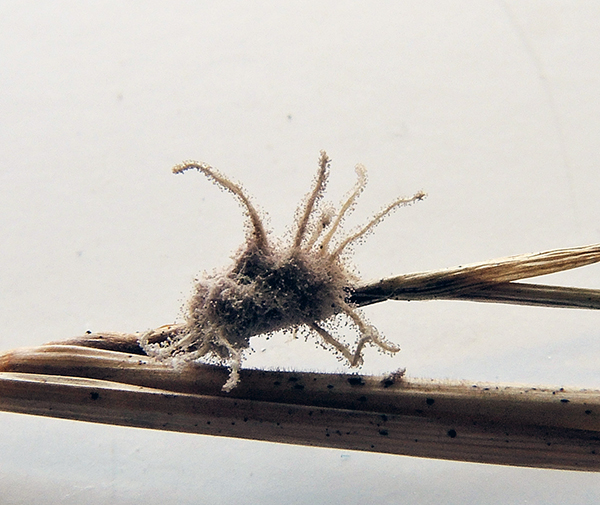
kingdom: Fungi
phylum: Ascomycota
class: Sordariomycetes
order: Hypocreales
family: Cordycipitaceae
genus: Gibellula
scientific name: Gibellula pulchra
